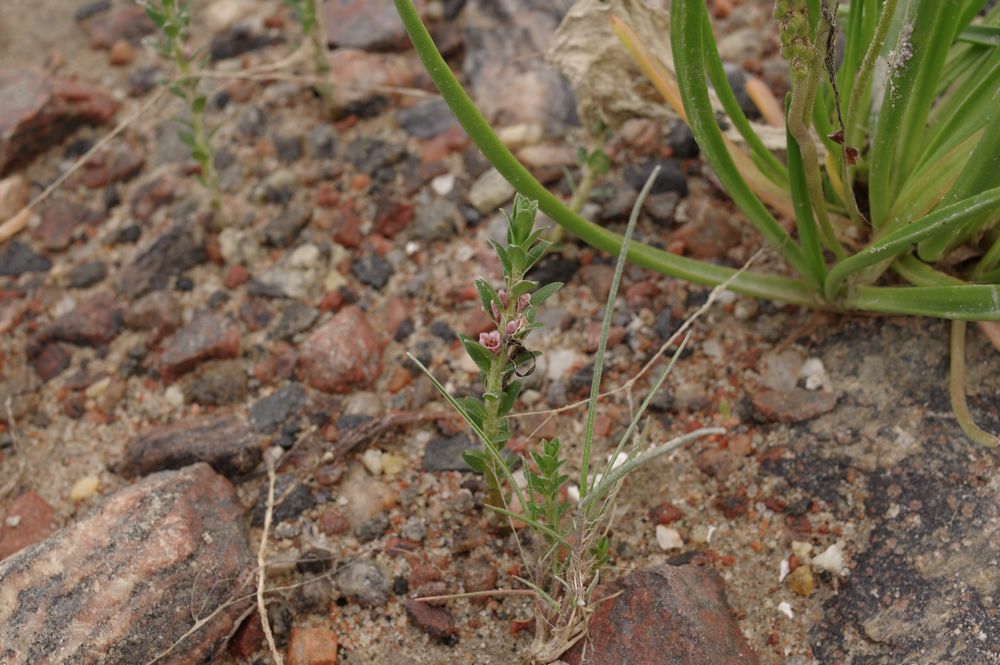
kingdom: Plantae
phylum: Tracheophyta
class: Magnoliopsida
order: Ericales
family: Primulaceae
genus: Lysimachia
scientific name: Lysimachia maritima
